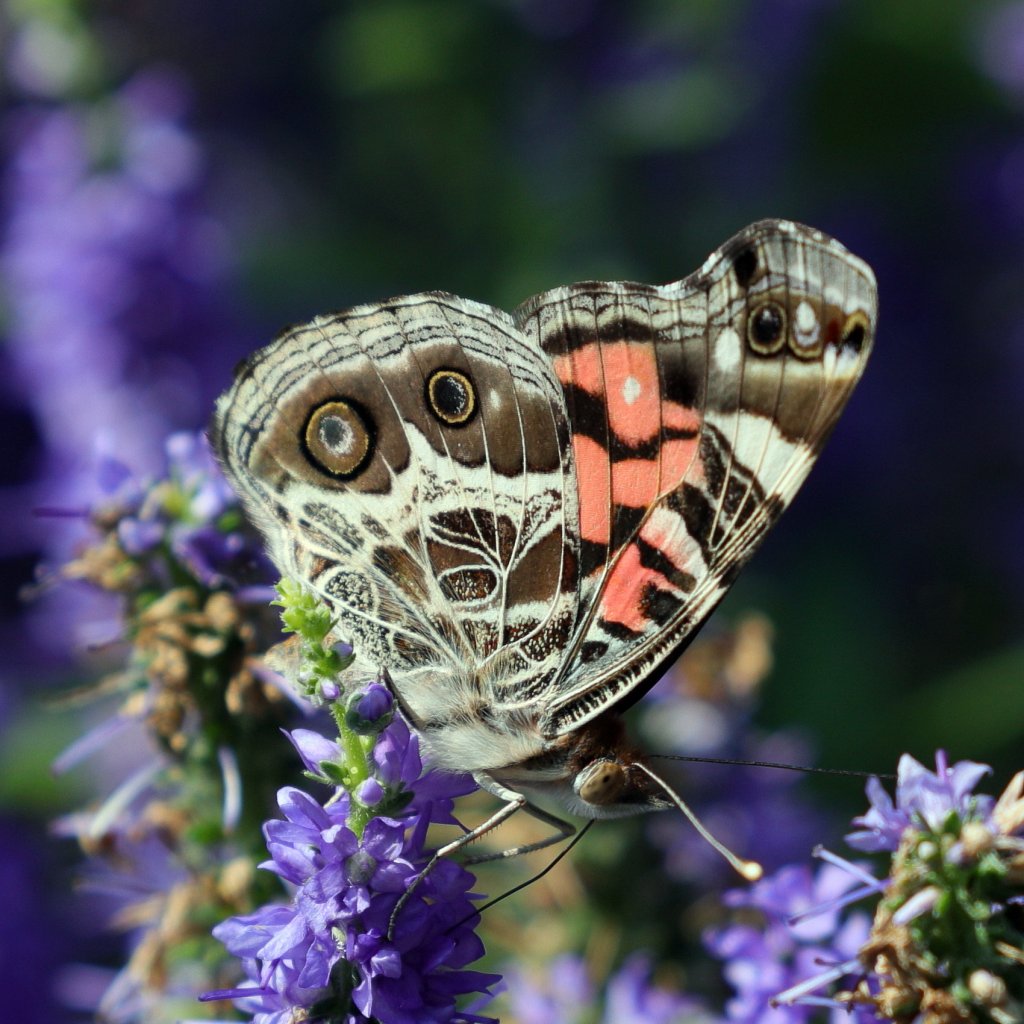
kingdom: Animalia
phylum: Arthropoda
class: Insecta
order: Lepidoptera
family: Nymphalidae
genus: Vanessa
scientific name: Vanessa virginiensis
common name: American Lady
